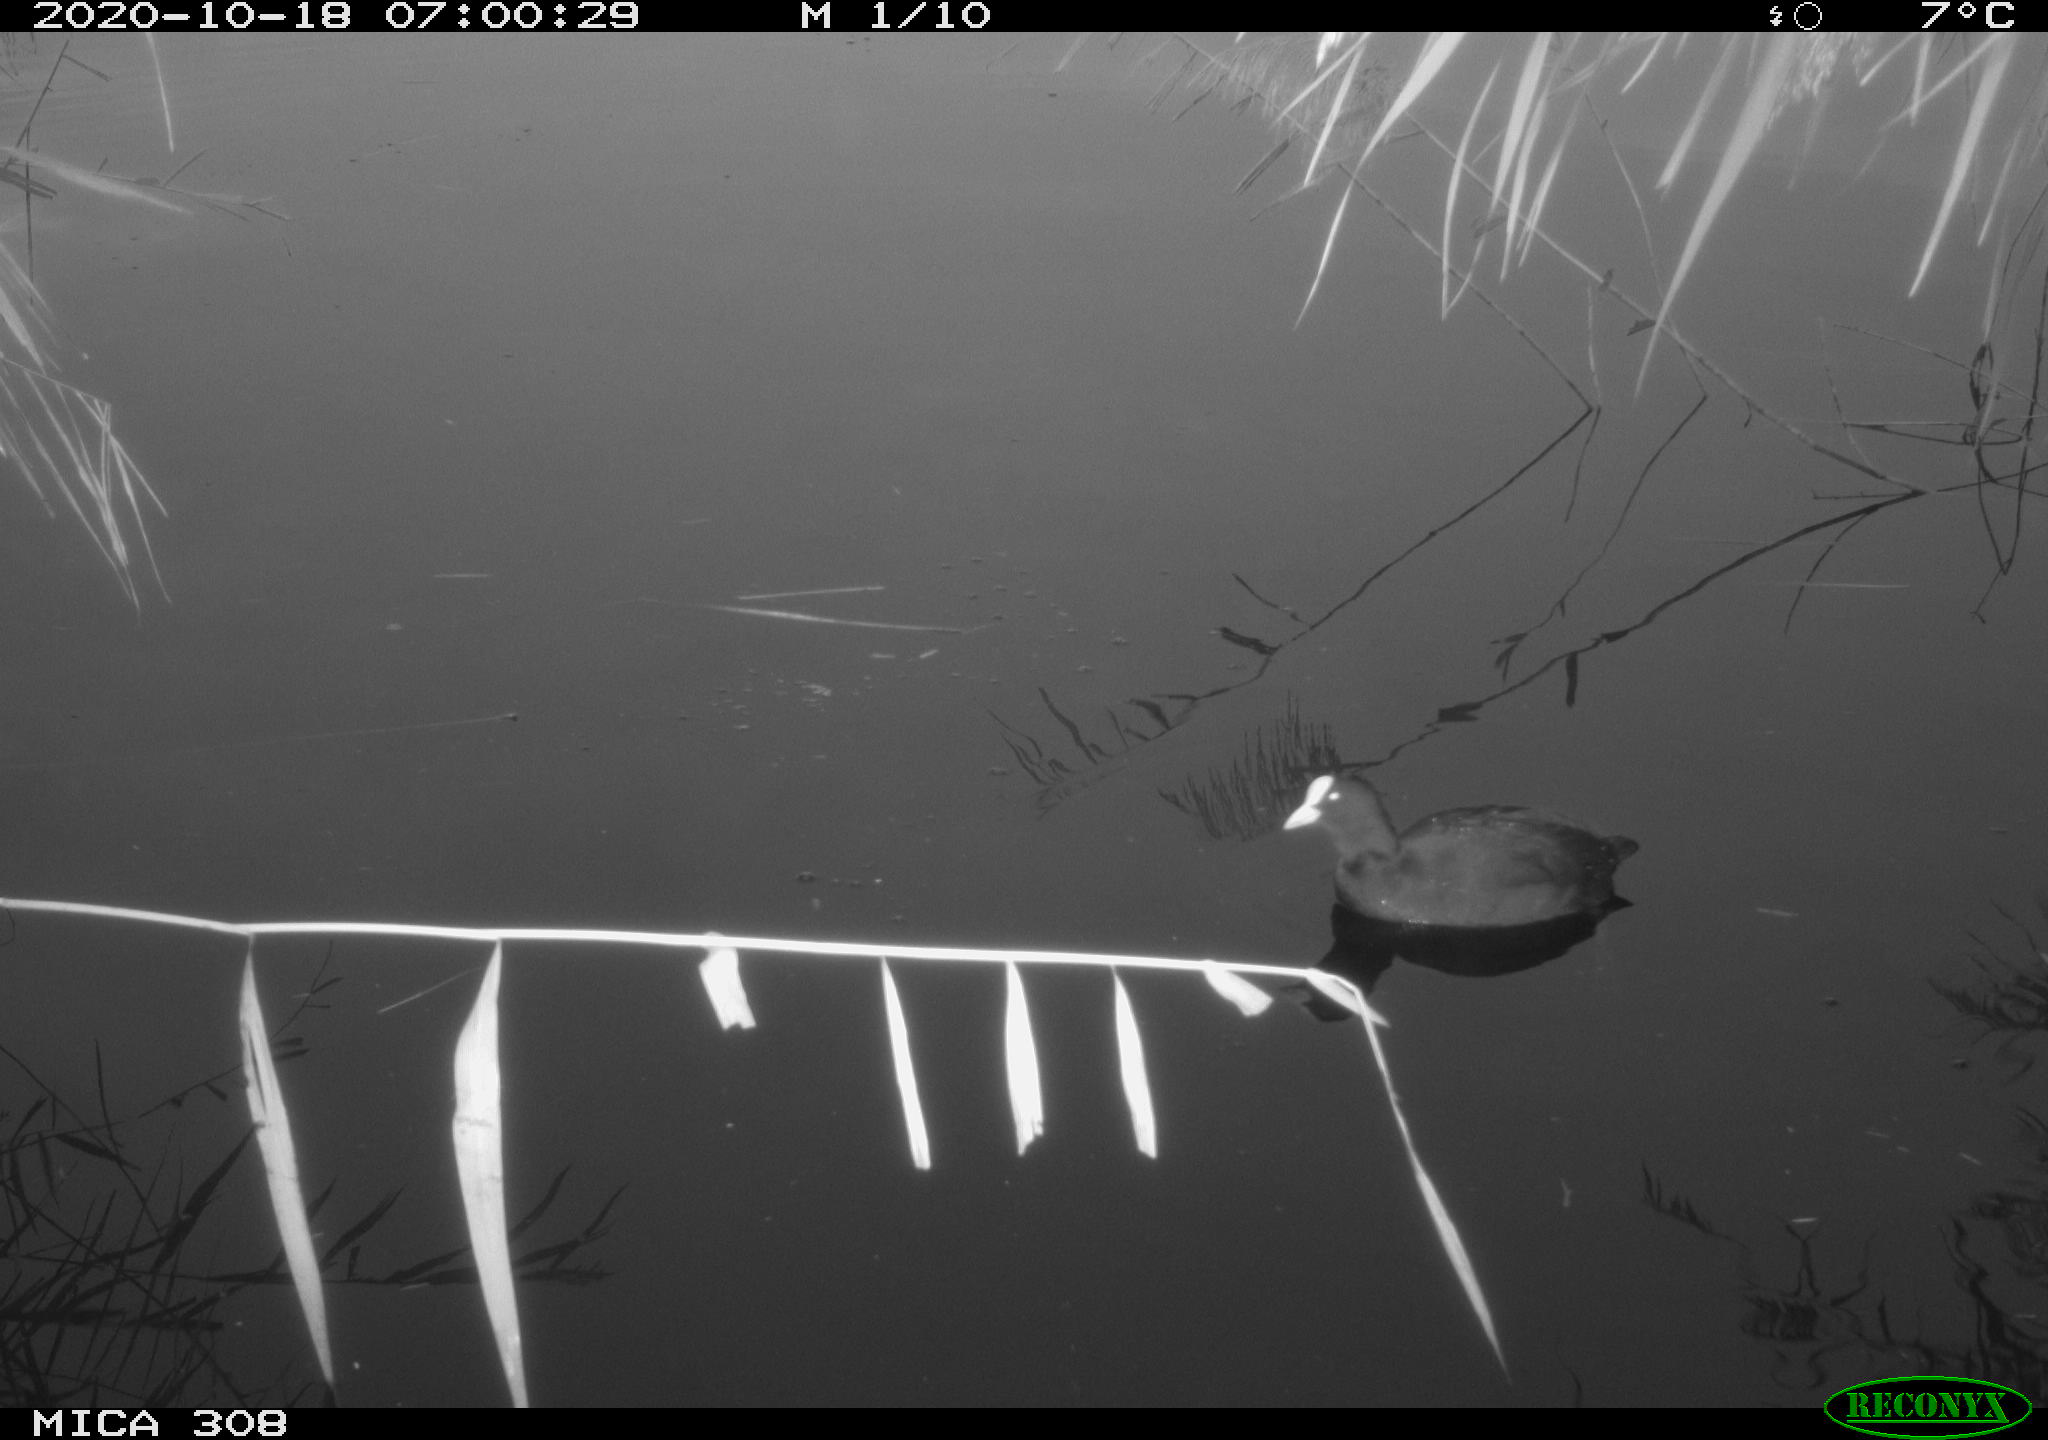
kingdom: Animalia
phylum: Chordata
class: Aves
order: Gruiformes
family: Rallidae
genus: Gallinula
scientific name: Gallinula chloropus
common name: Common moorhen
